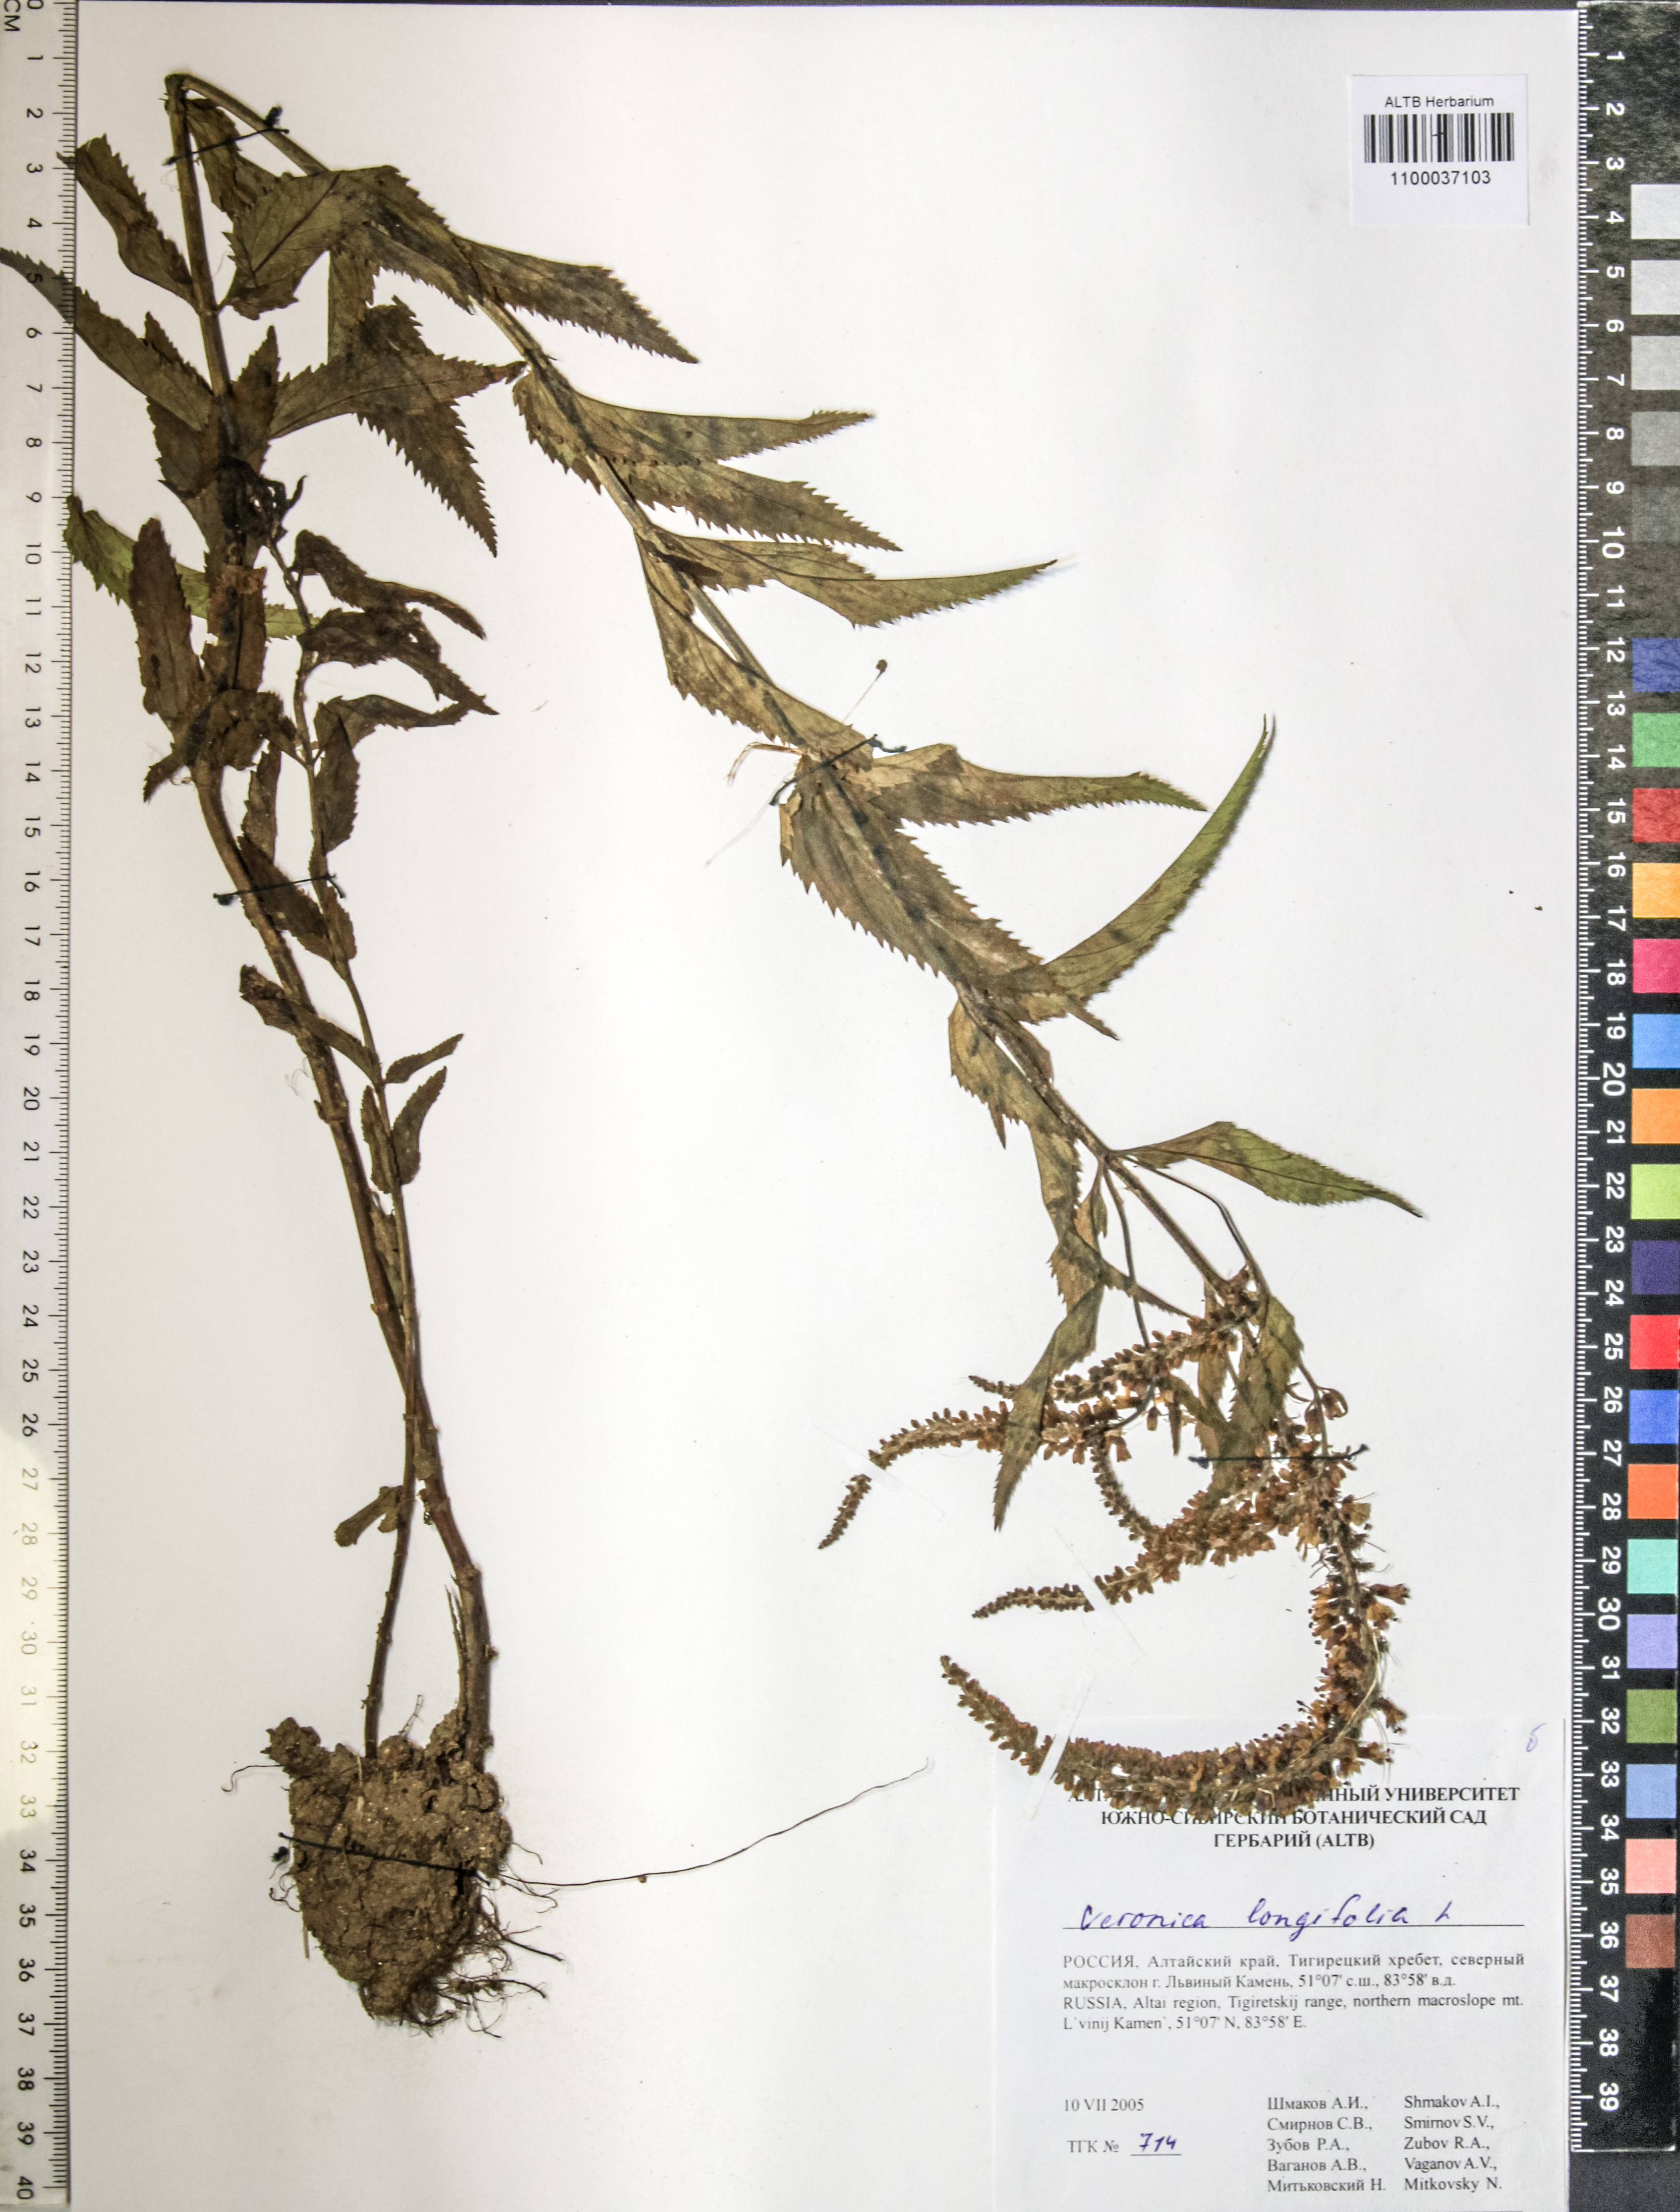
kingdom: Plantae
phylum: Tracheophyta
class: Magnoliopsida
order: Lamiales
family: Plantaginaceae
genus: Veronica
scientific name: Veronica longifolia
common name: Garden speedwell
